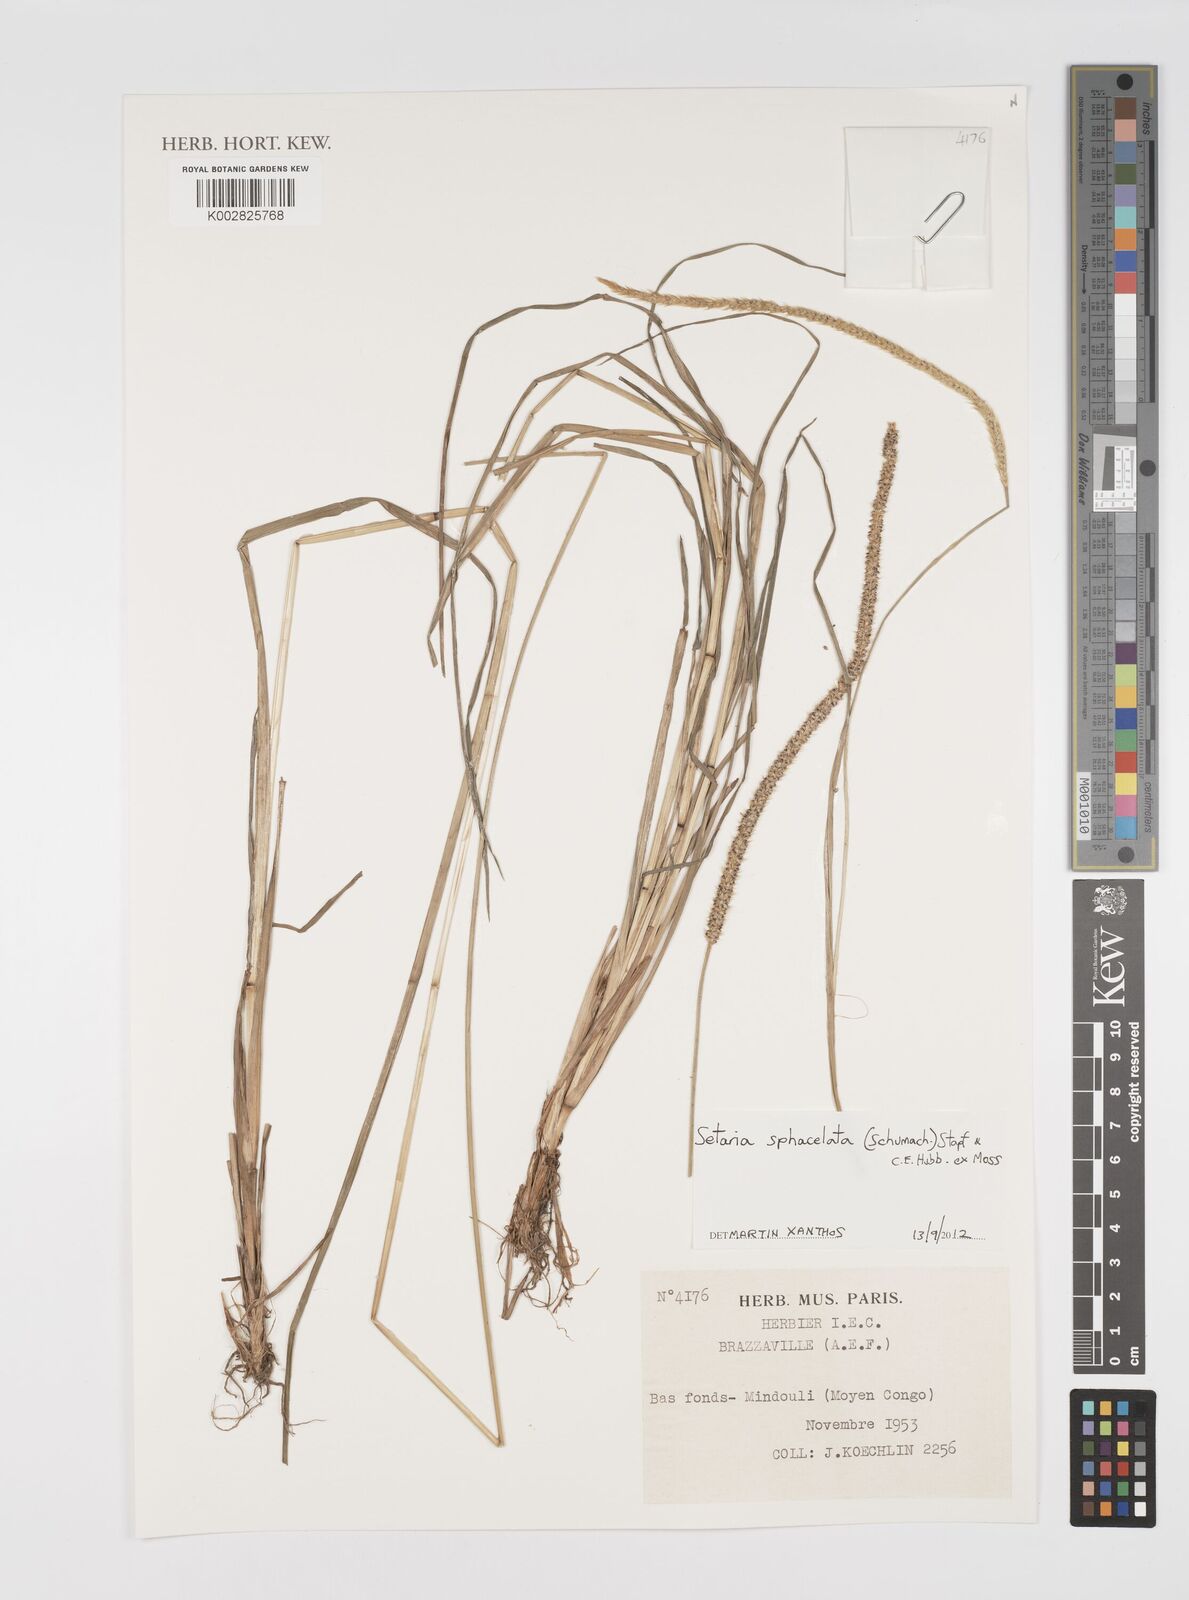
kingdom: Plantae
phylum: Tracheophyta
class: Liliopsida
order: Poales
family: Poaceae
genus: Setaria
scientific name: Setaria sphacelata
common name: African bristlegrass
